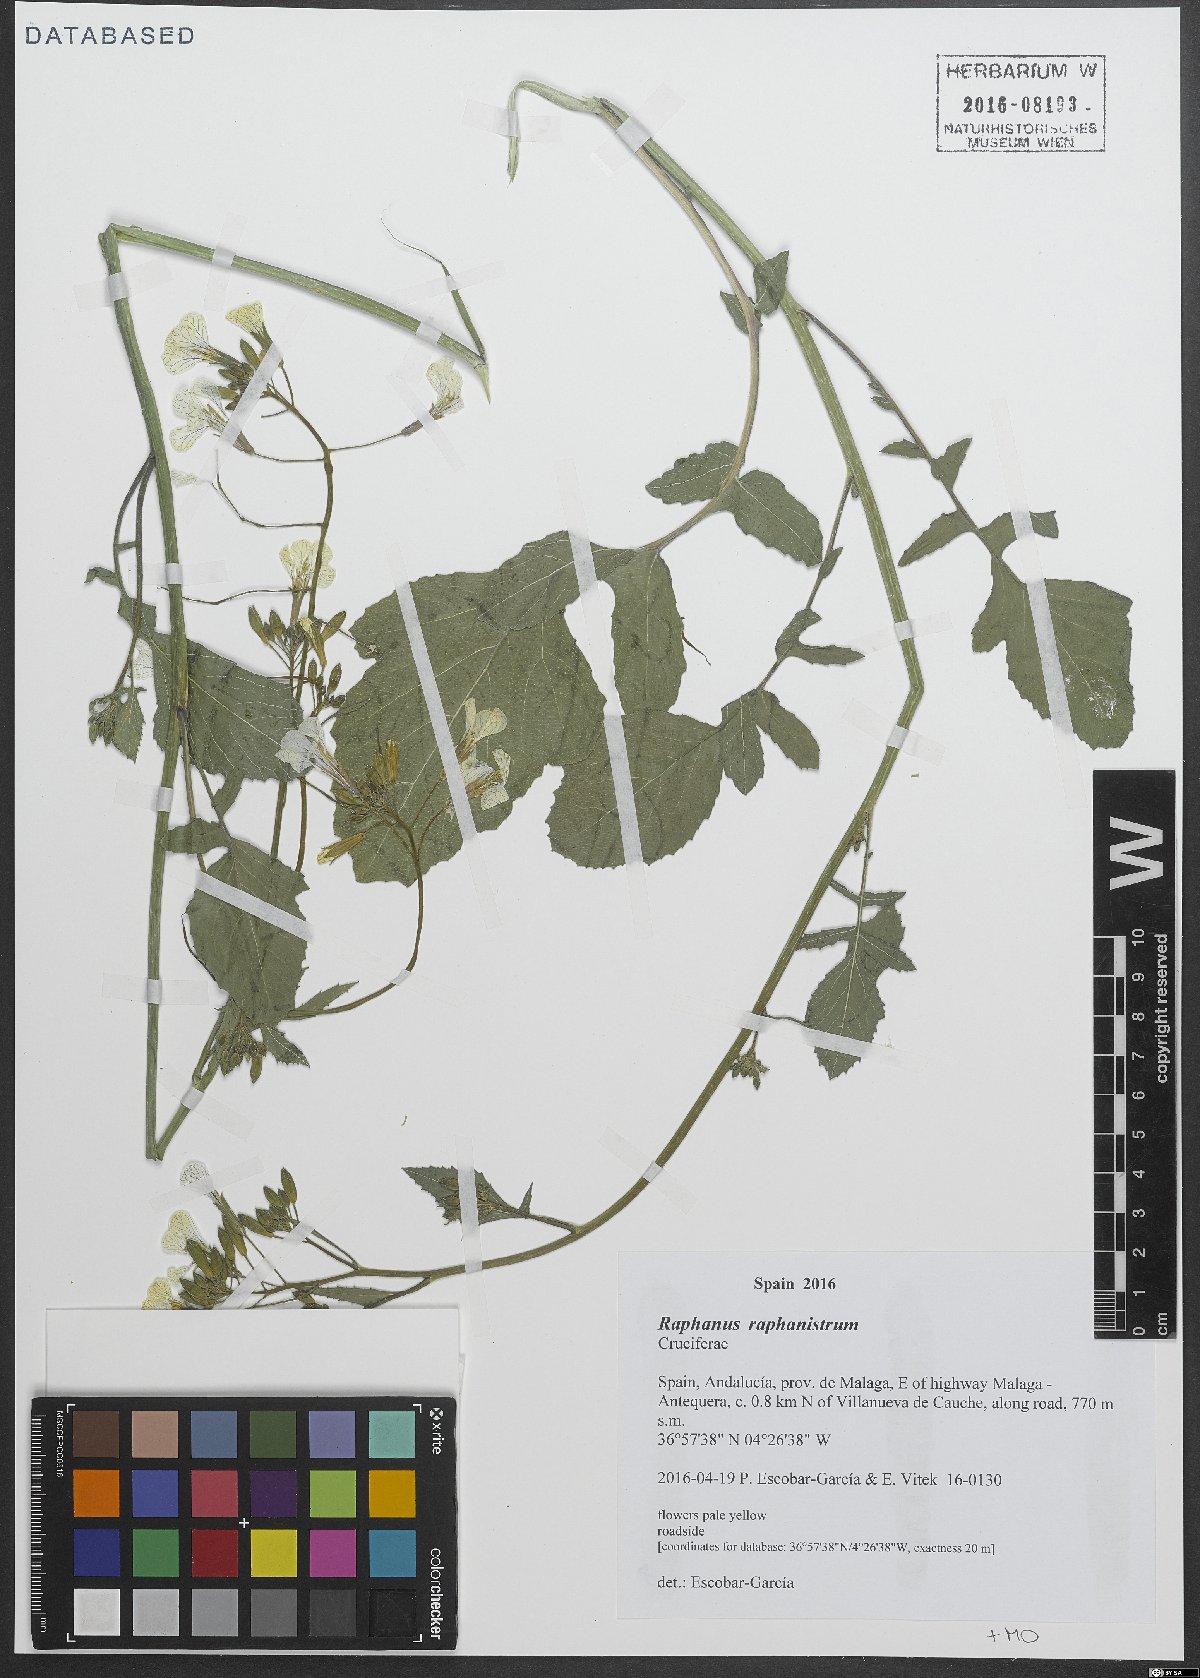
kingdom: Plantae
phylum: Tracheophyta
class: Magnoliopsida
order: Brassicales
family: Brassicaceae
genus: Raphanus
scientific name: Raphanus raphanistrum
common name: Wild radish
